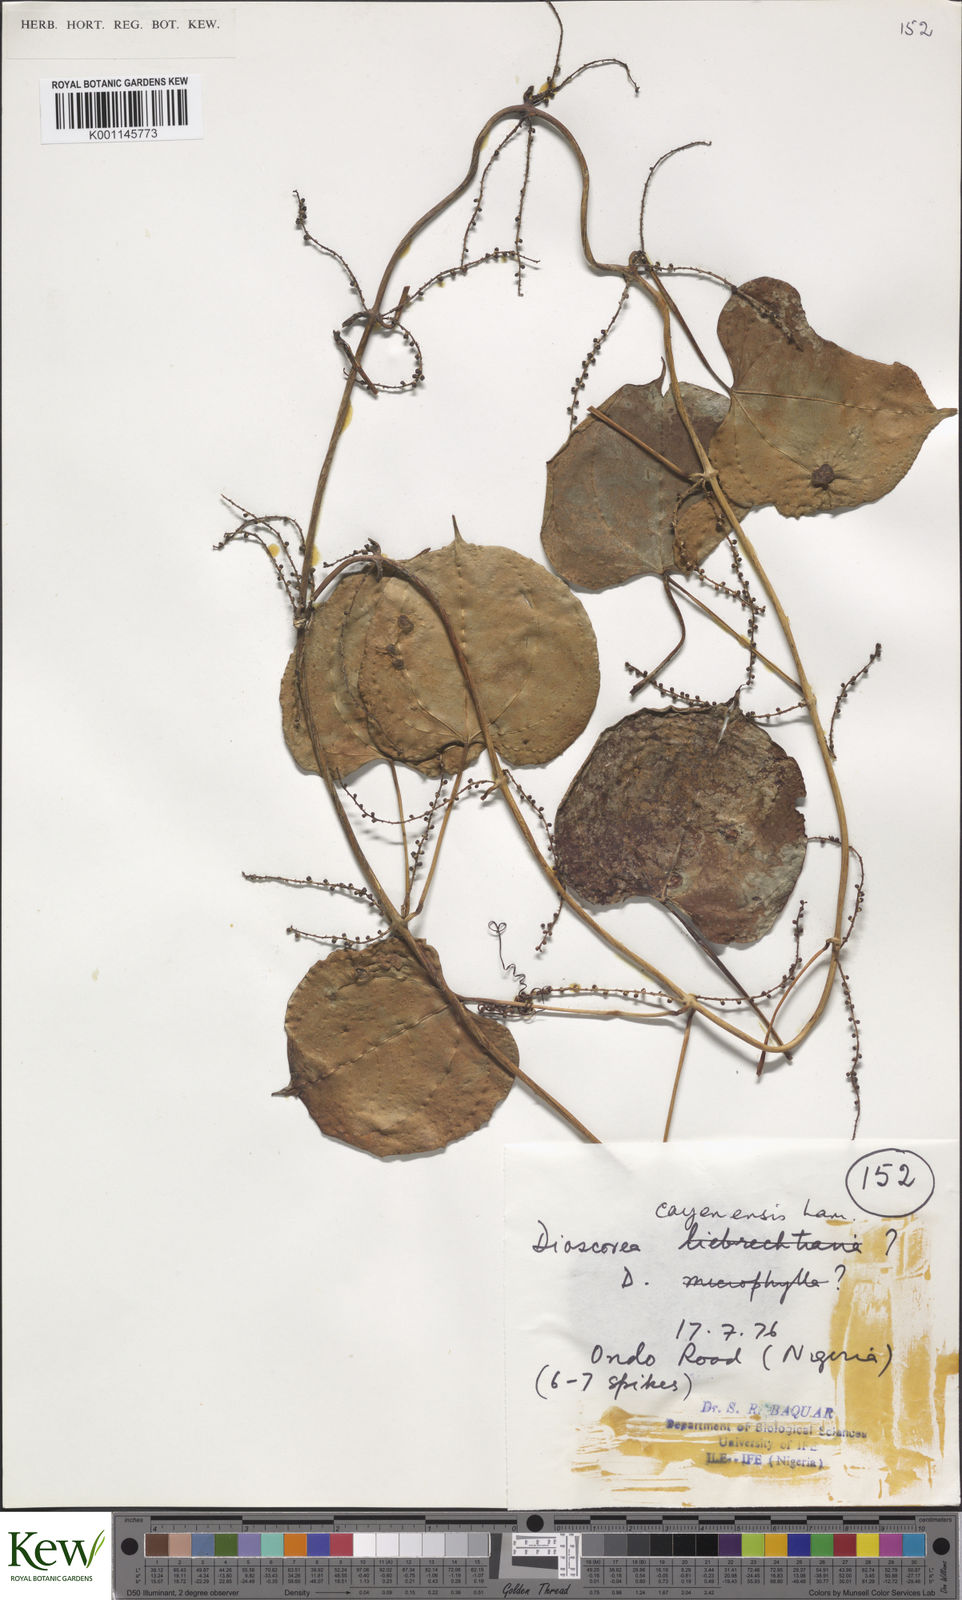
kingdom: Plantae
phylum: Tracheophyta
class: Liliopsida
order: Dioscoreales
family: Dioscoreaceae
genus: Dioscorea
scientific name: Dioscorea cayenensis
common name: Attoto yam
